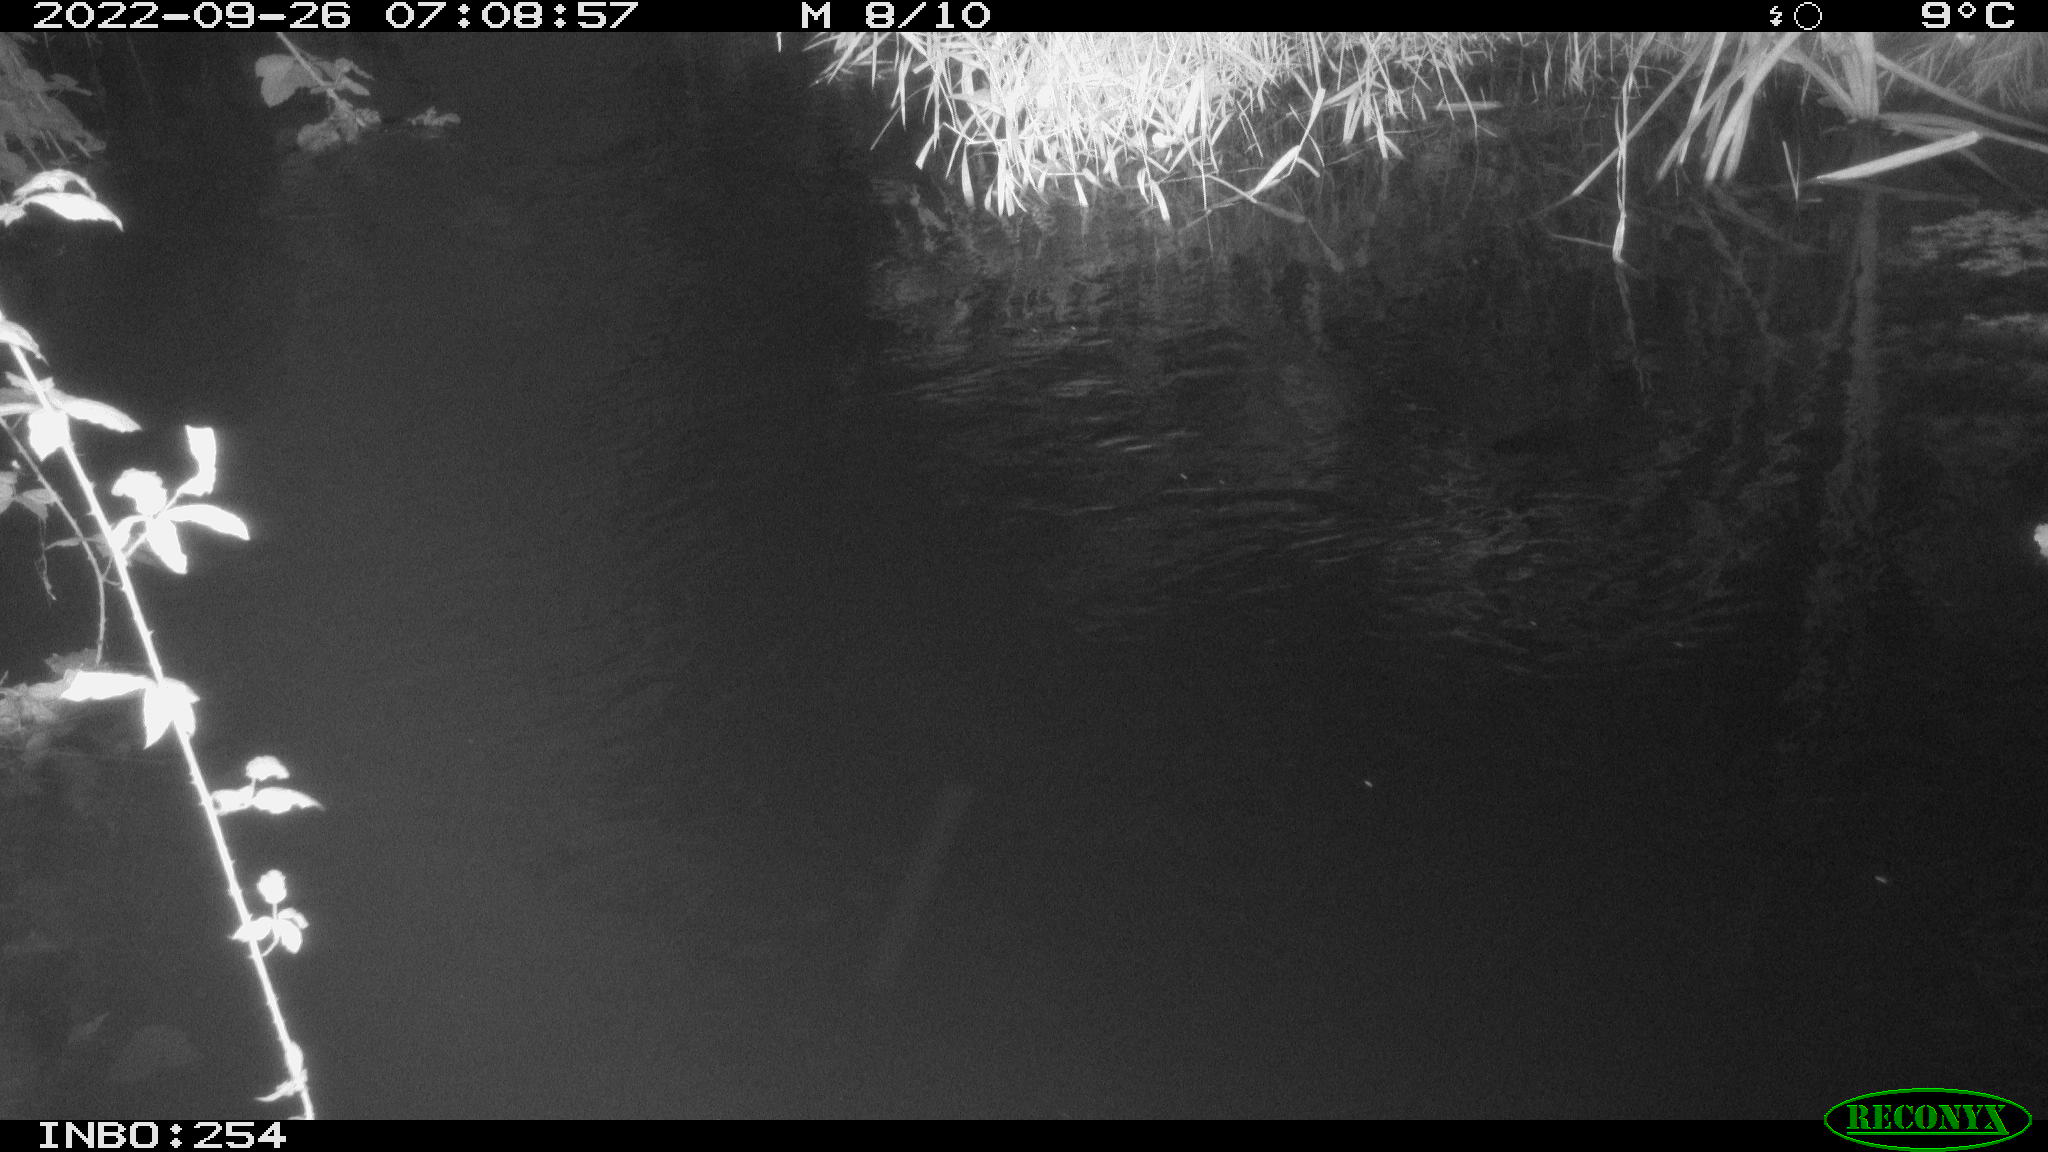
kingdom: Animalia
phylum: Chordata
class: Aves
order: Anseriformes
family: Anatidae
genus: Anas
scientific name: Anas
